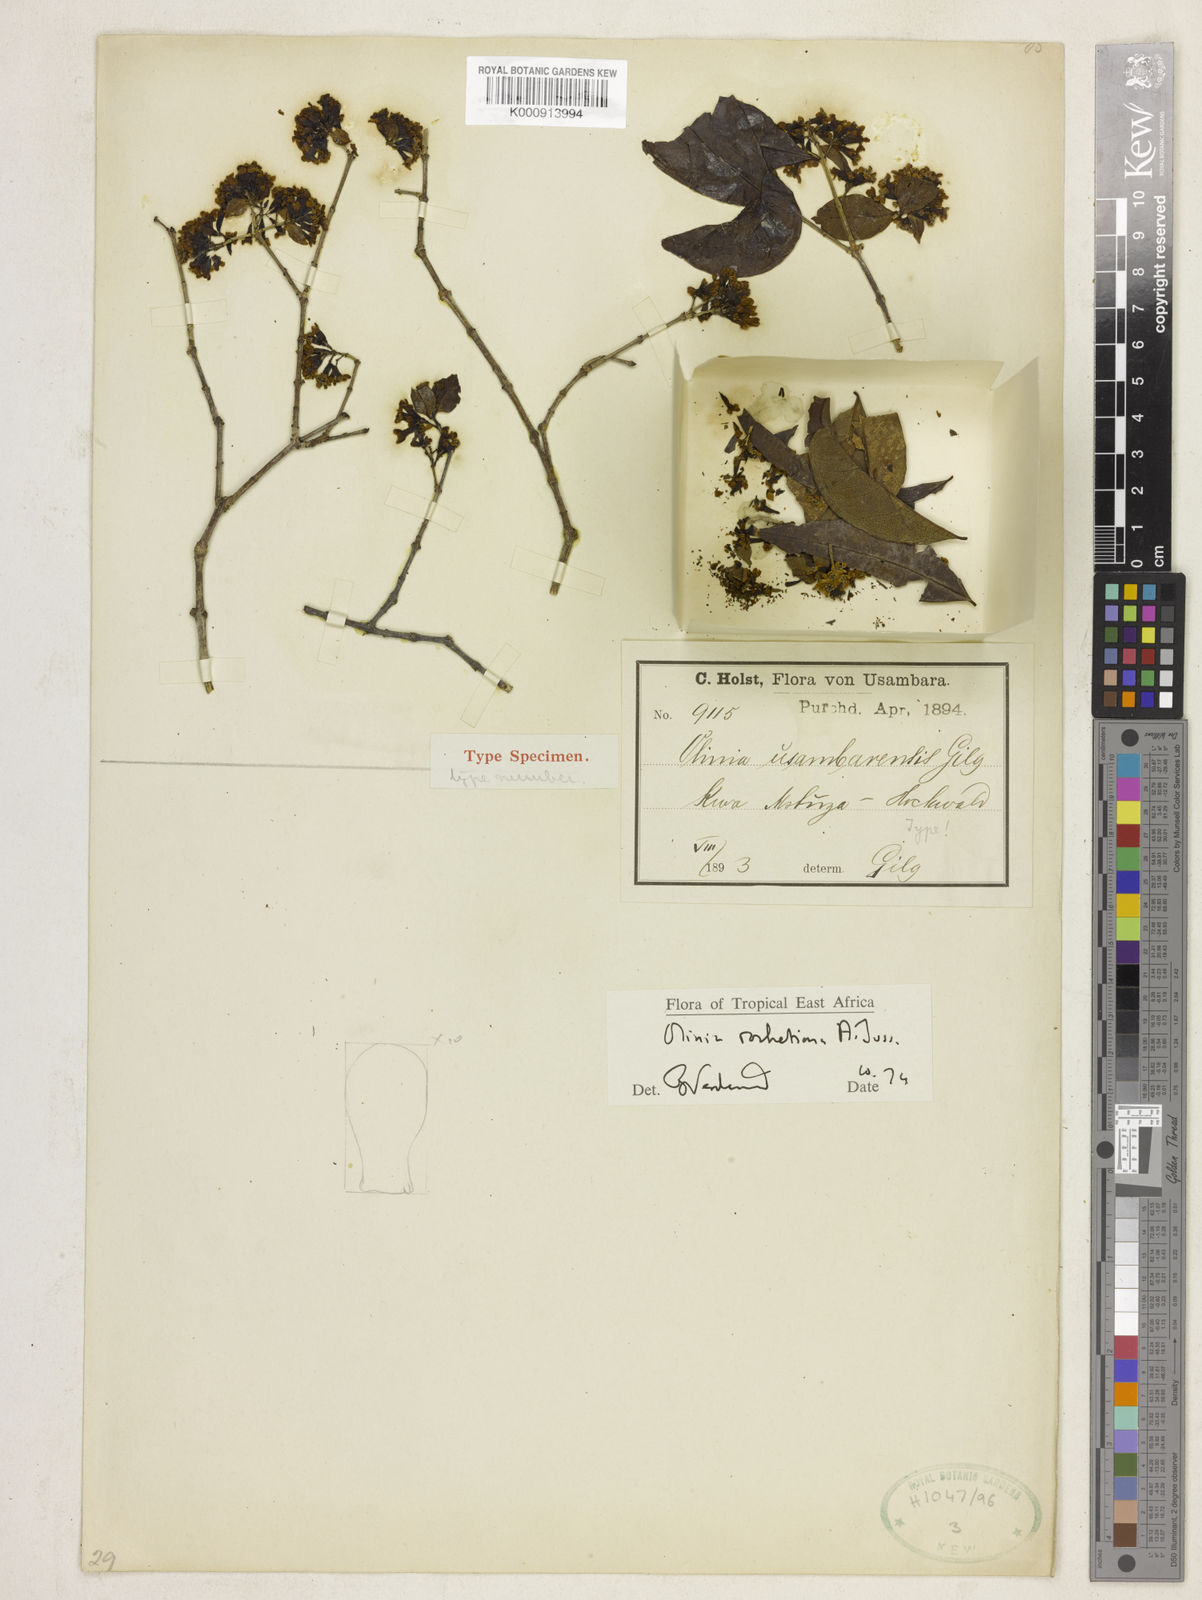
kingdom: Plantae
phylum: Tracheophyta
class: Magnoliopsida
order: Myrtales
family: Penaeaceae
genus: Olinia
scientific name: Olinia
